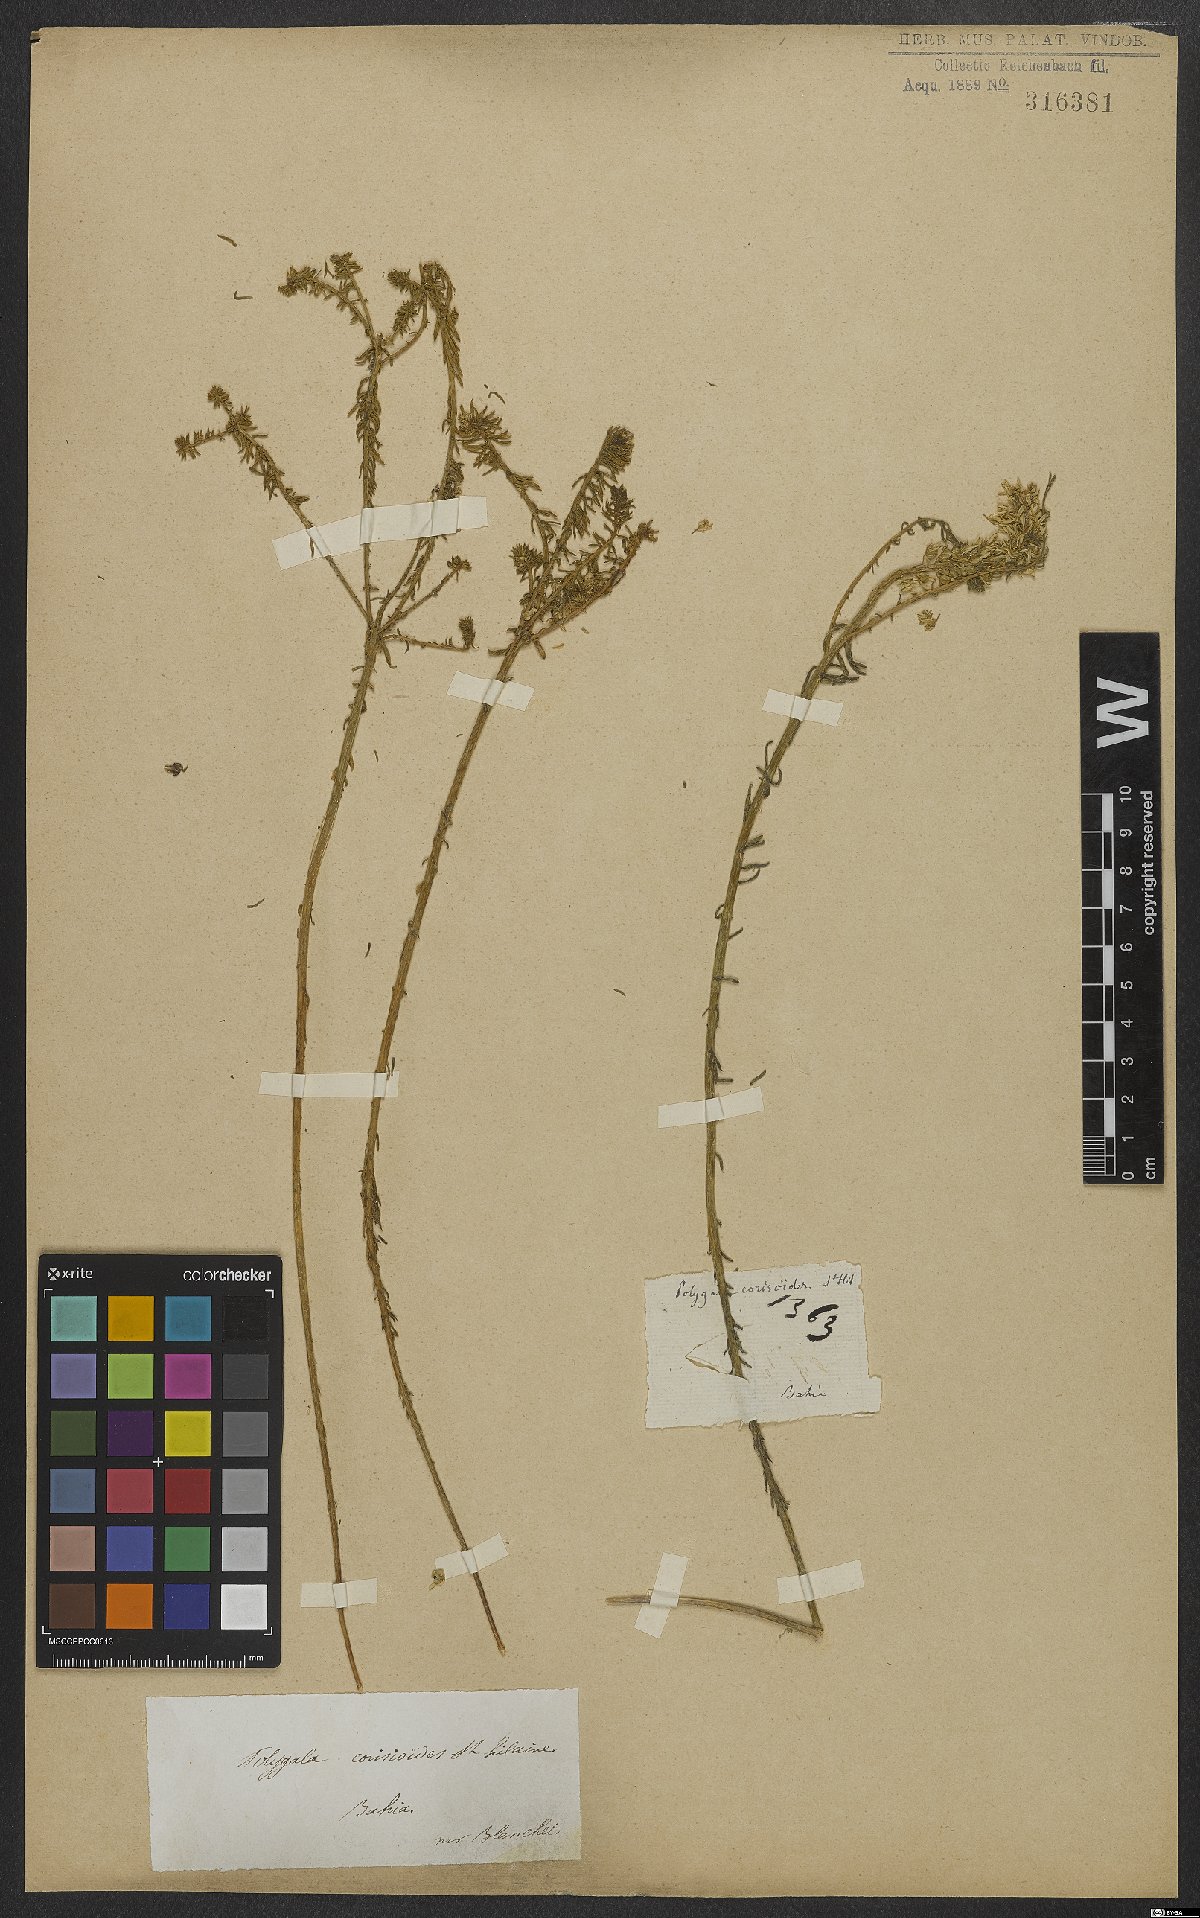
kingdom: Plantae
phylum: Tracheophyta
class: Magnoliopsida
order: Fabales
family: Polygalaceae
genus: Polygala
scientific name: Polygala cyparissias
